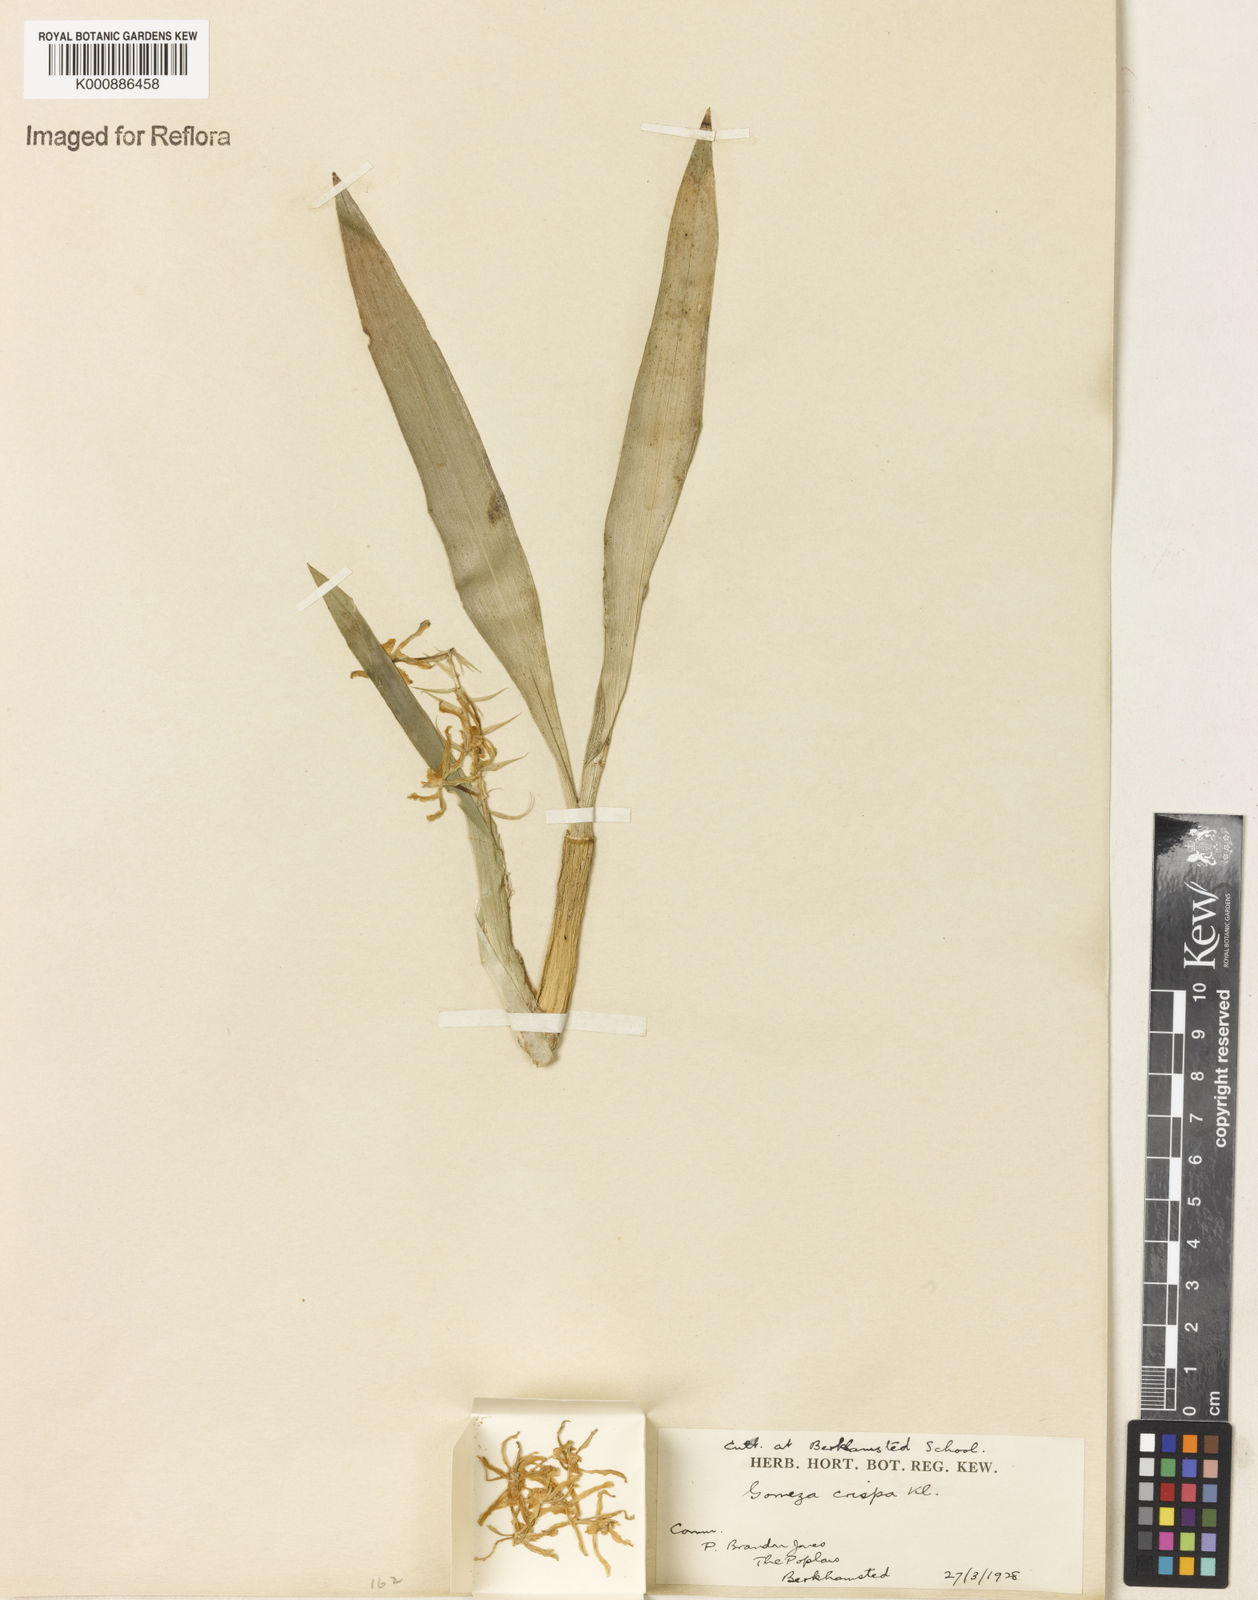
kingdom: Plantae
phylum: Tracheophyta
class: Liliopsida
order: Asparagales
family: Orchidaceae
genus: Gomesa
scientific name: Gomesa crispa
